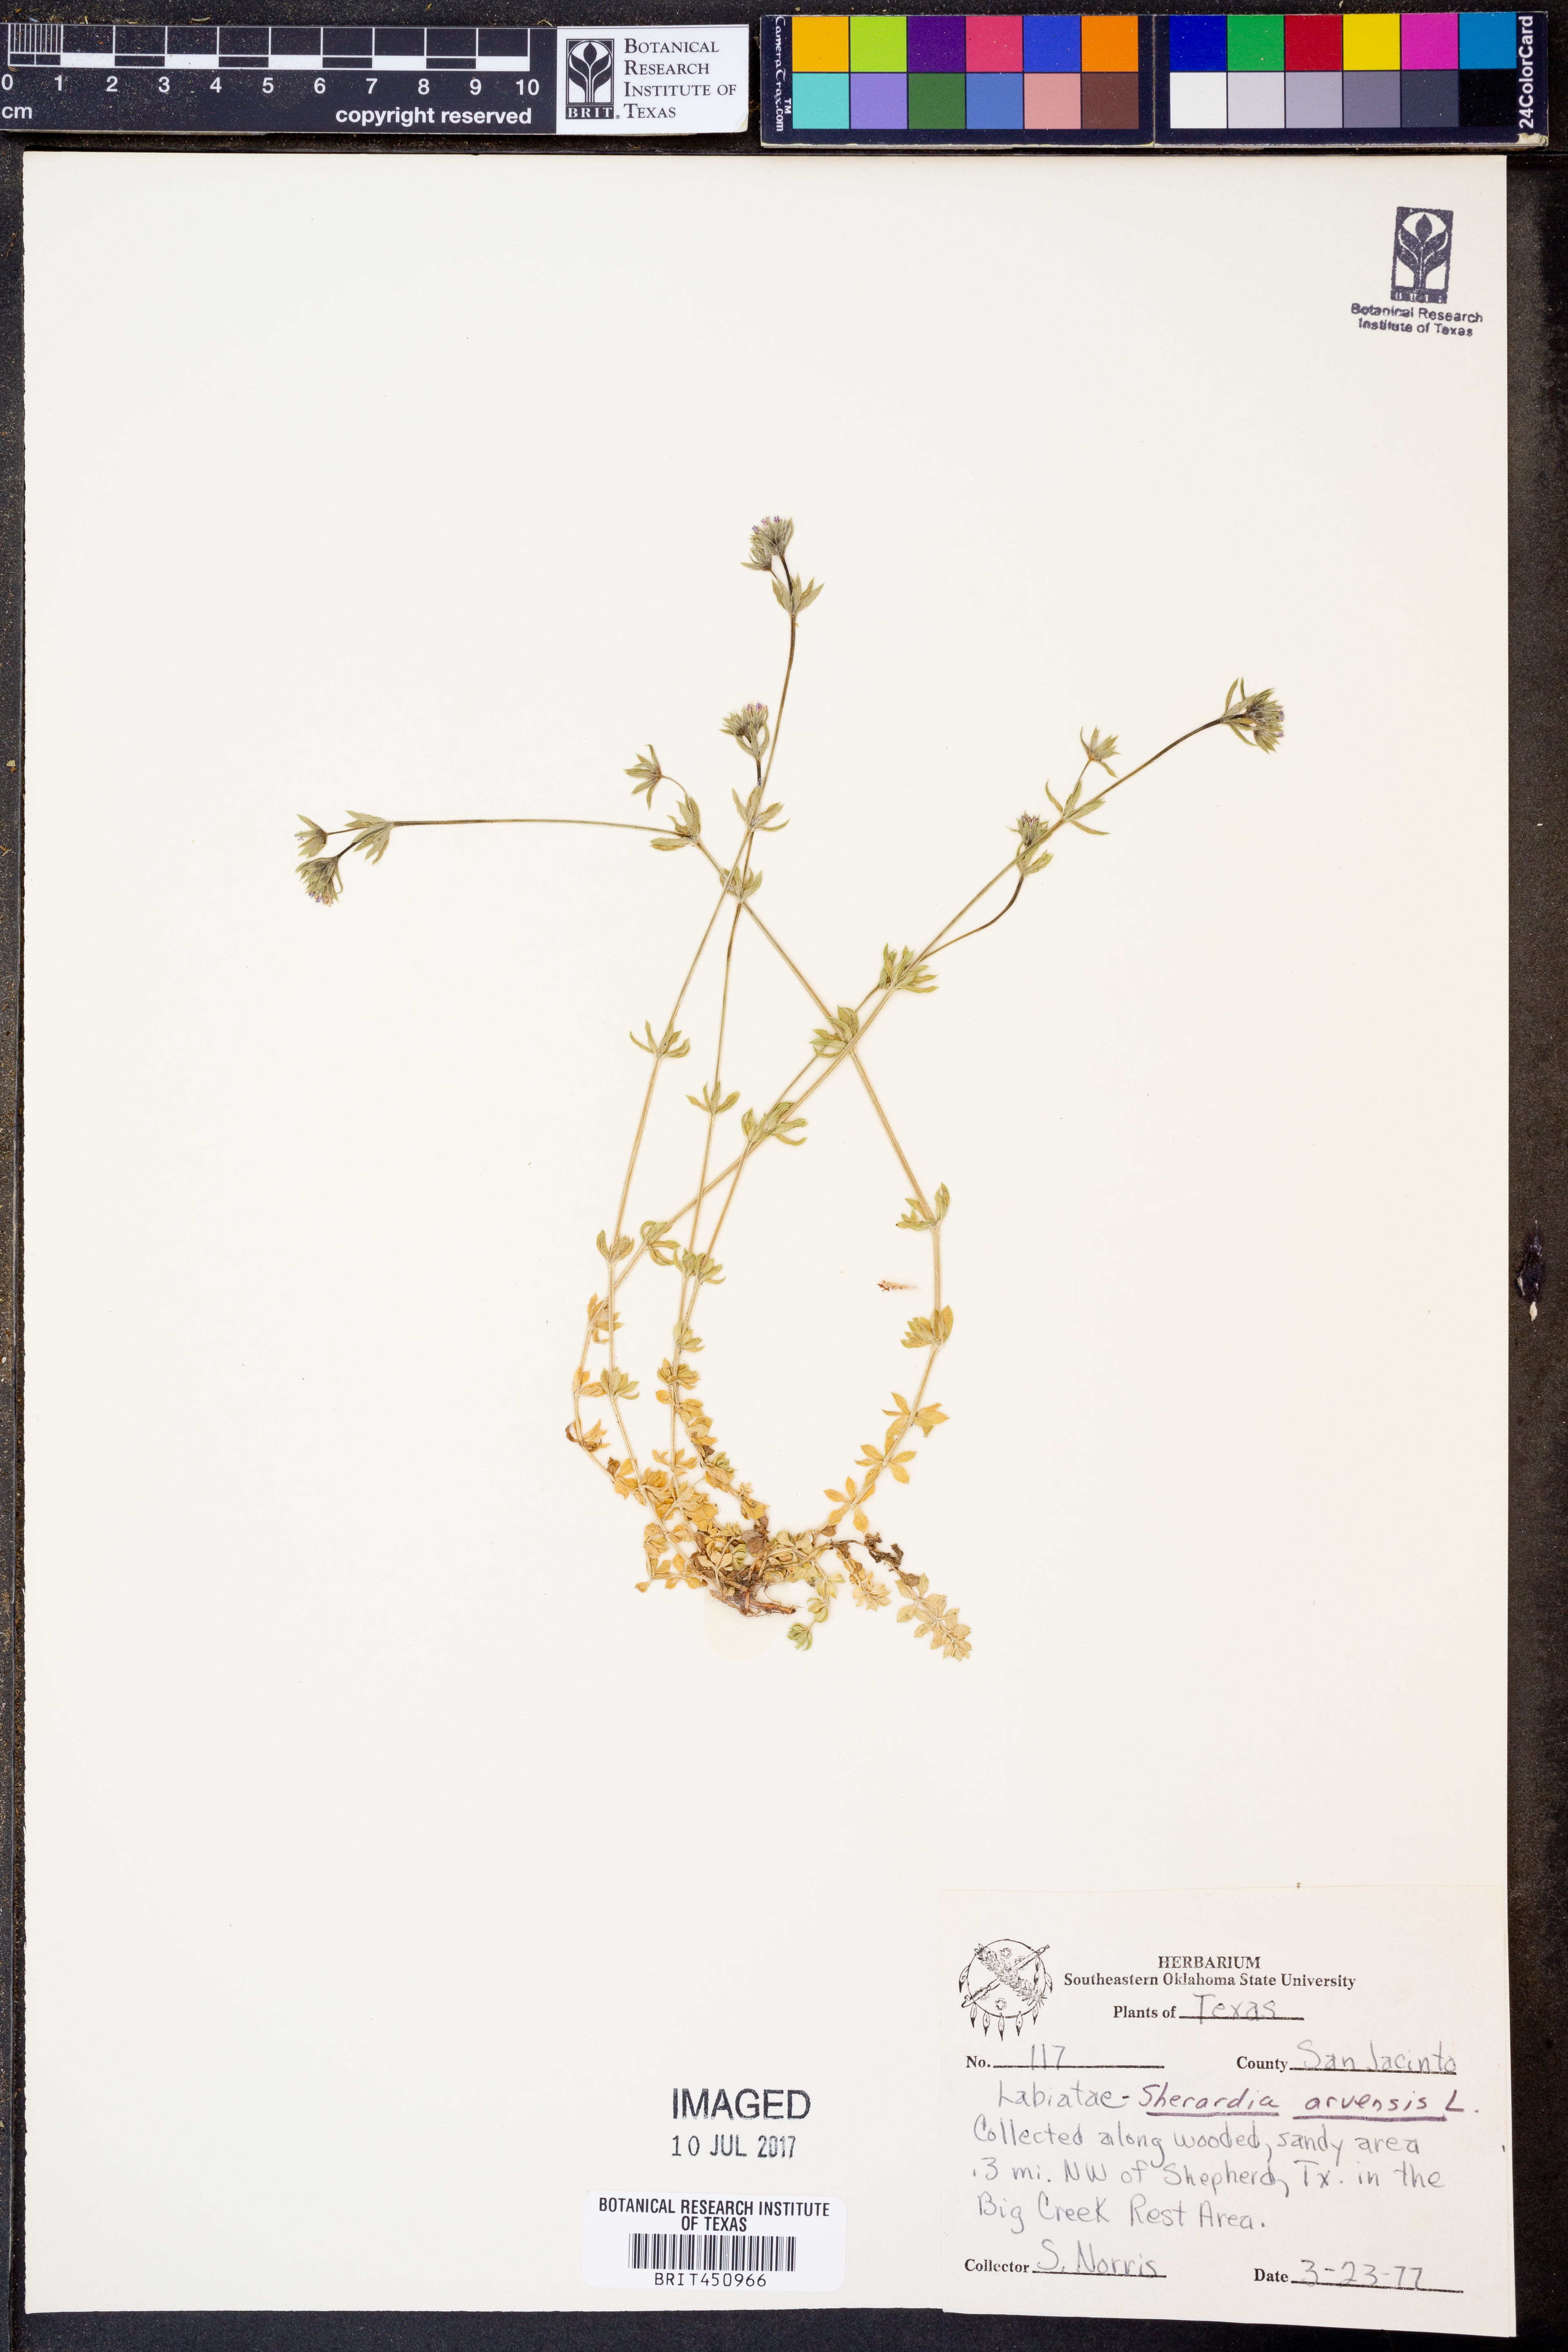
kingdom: Plantae
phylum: Tracheophyta
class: Magnoliopsida
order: Gentianales
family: Rubiaceae
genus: Sherardia
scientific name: Sherardia arvensis
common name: Field madder
